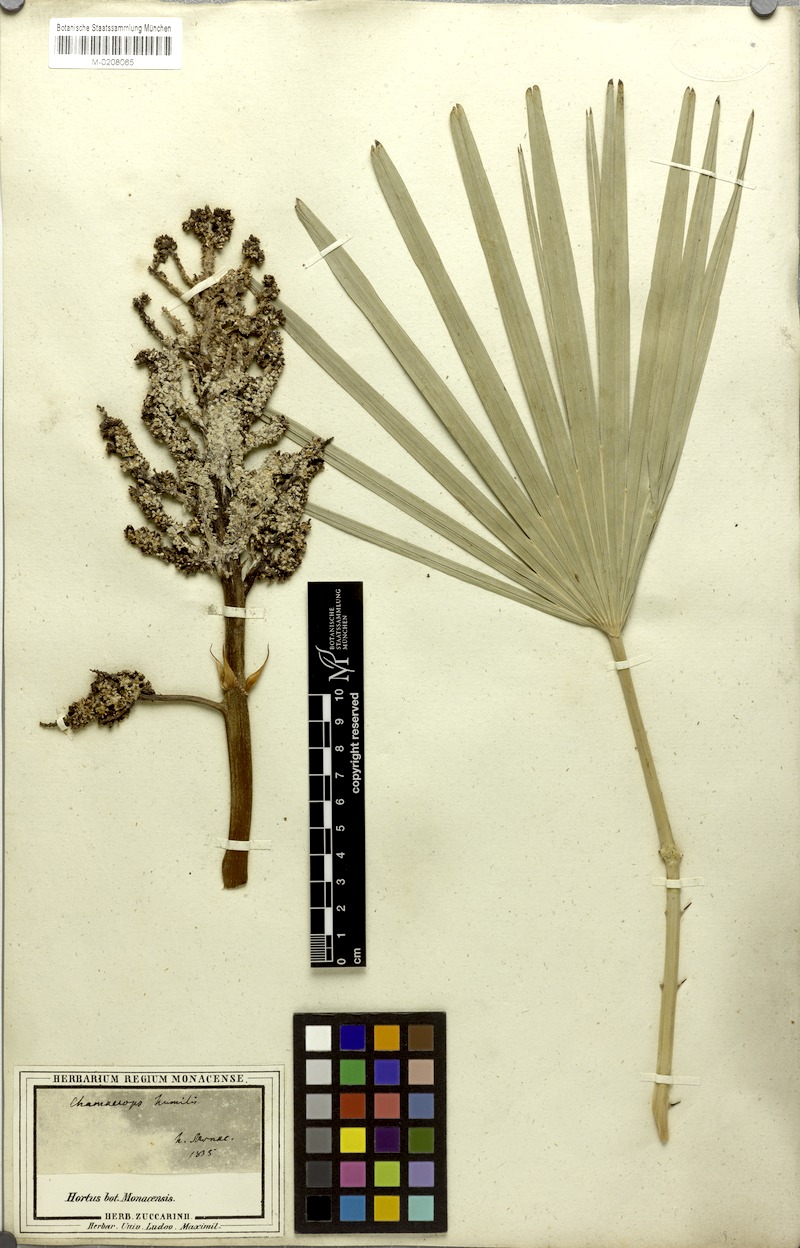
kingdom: Plantae
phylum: Tracheophyta
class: Liliopsida
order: Arecales
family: Arecaceae
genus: Chamaerops
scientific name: Chamaerops humilis
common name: Dwarf fan palm
